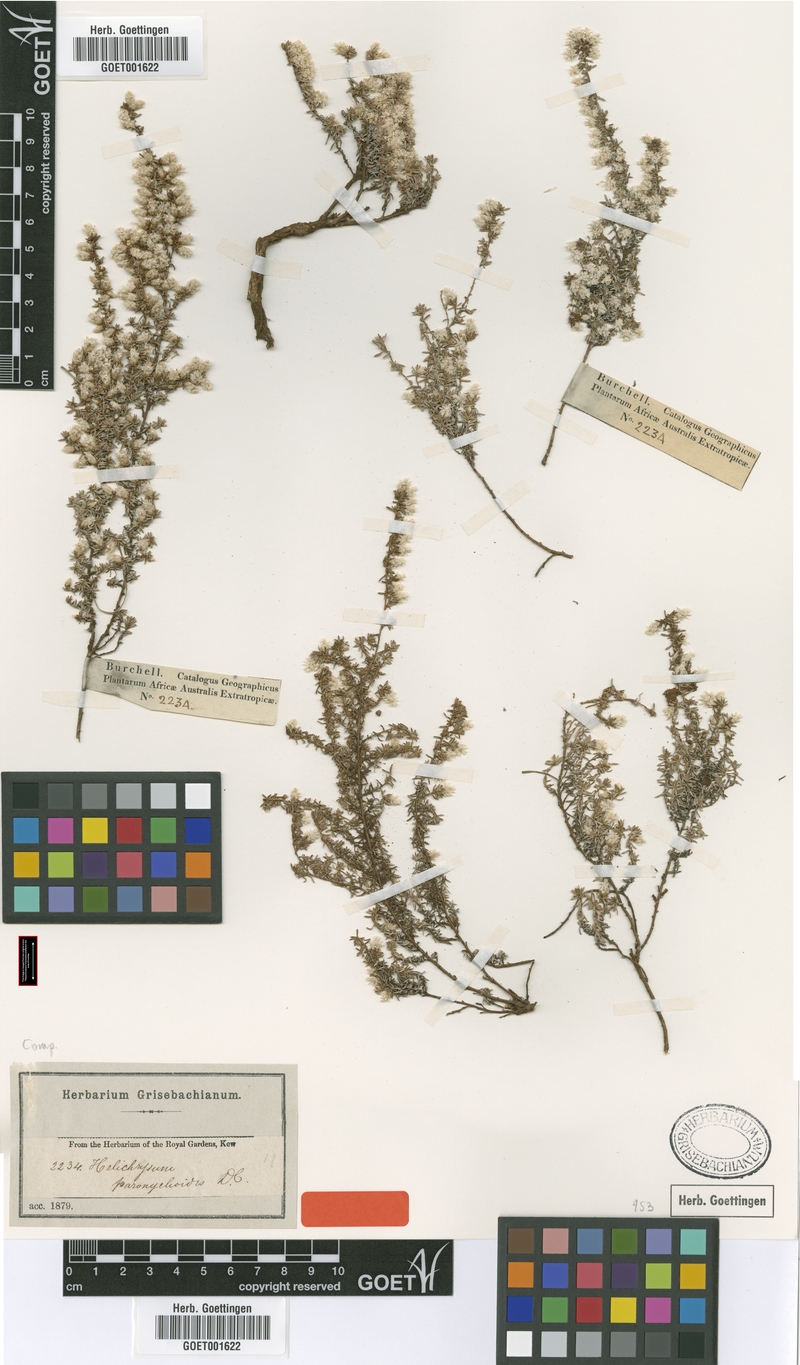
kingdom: Plantae
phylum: Tracheophyta
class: Magnoliopsida
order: Asterales
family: Asteraceae
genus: Helichrysum
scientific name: Helichrysum paronychioides
